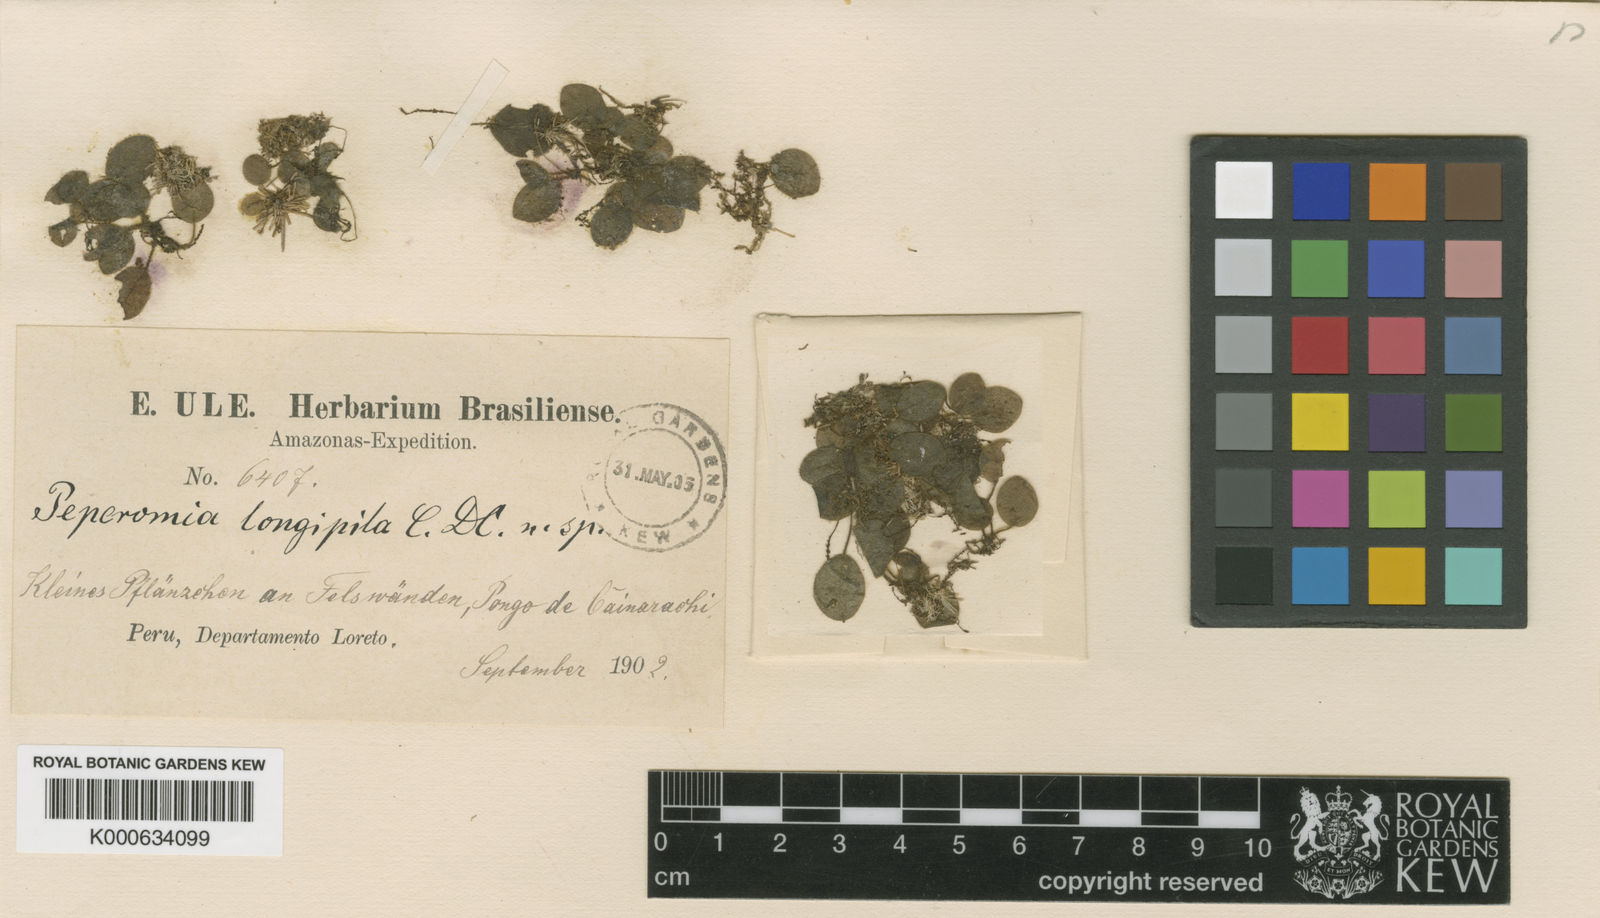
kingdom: Plantae
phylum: Tracheophyta
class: Magnoliopsida
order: Piperales
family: Piperaceae
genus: Peperomia
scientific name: Peperomia longipila
